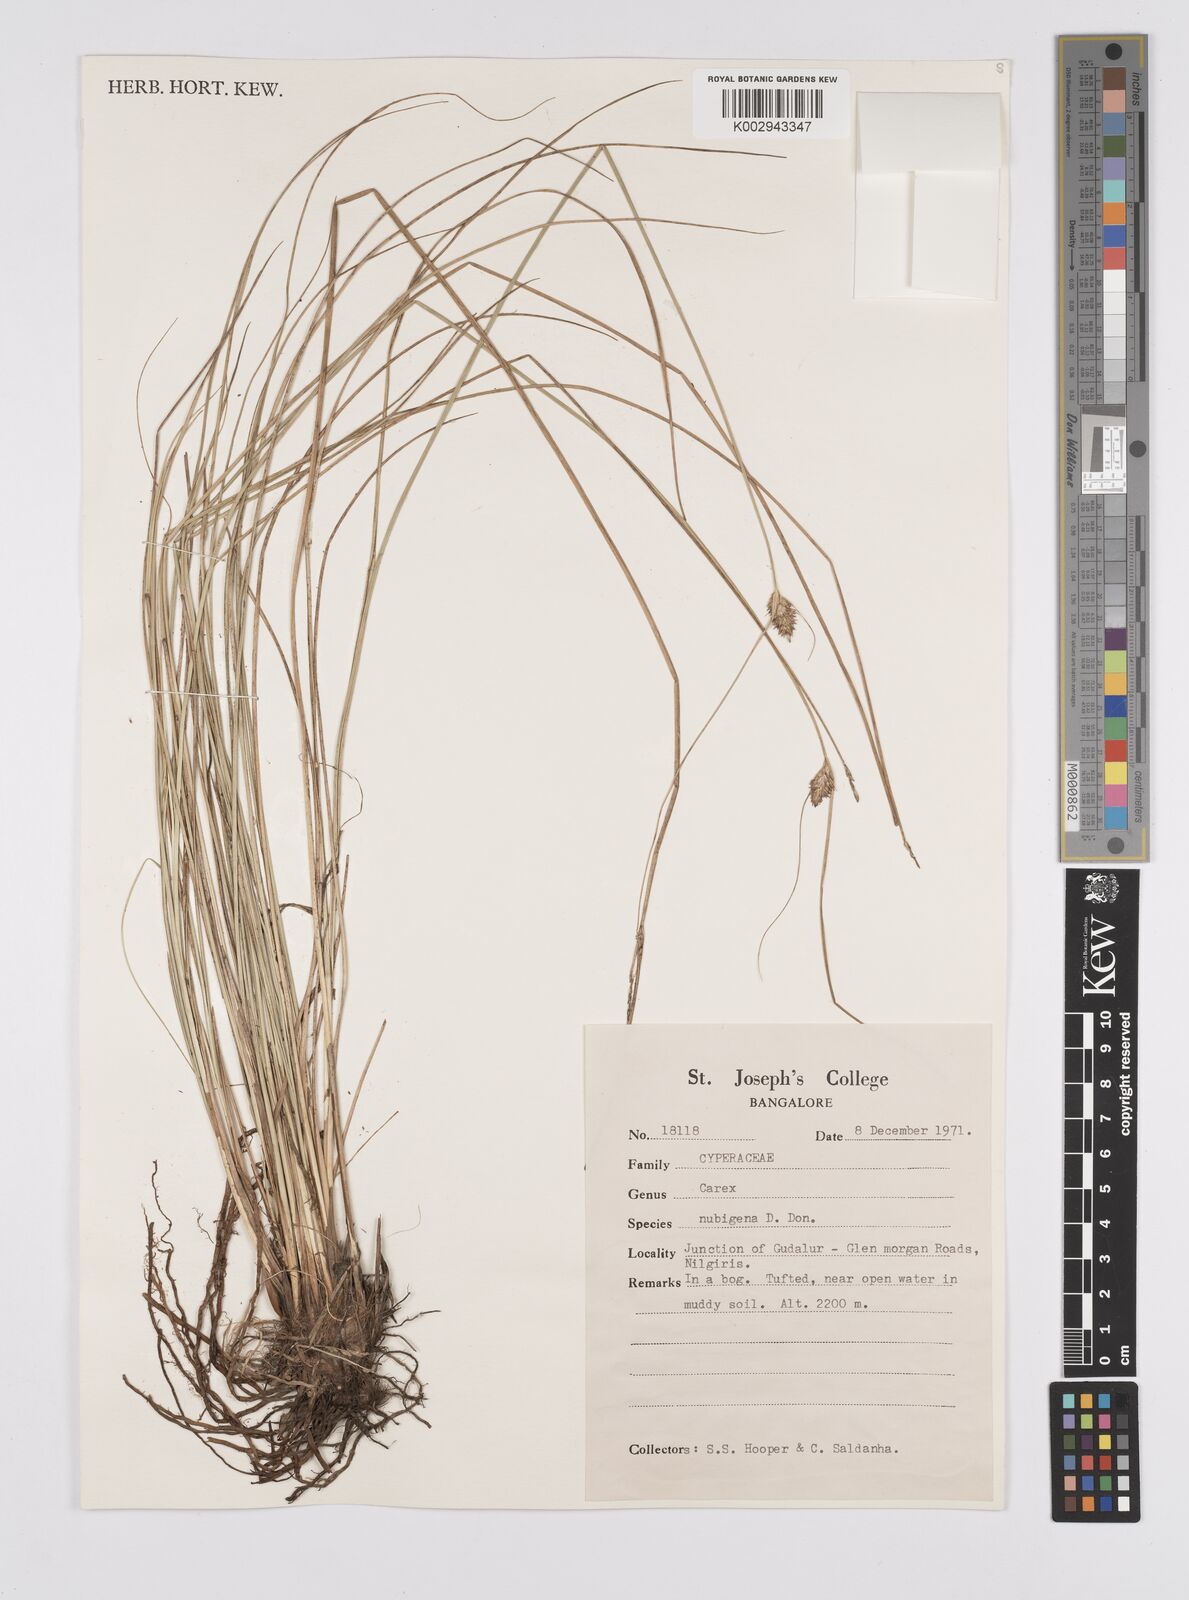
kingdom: Plantae
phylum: Tracheophyta
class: Liliopsida
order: Poales
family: Cyperaceae
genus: Carex
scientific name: Carex nubigena
